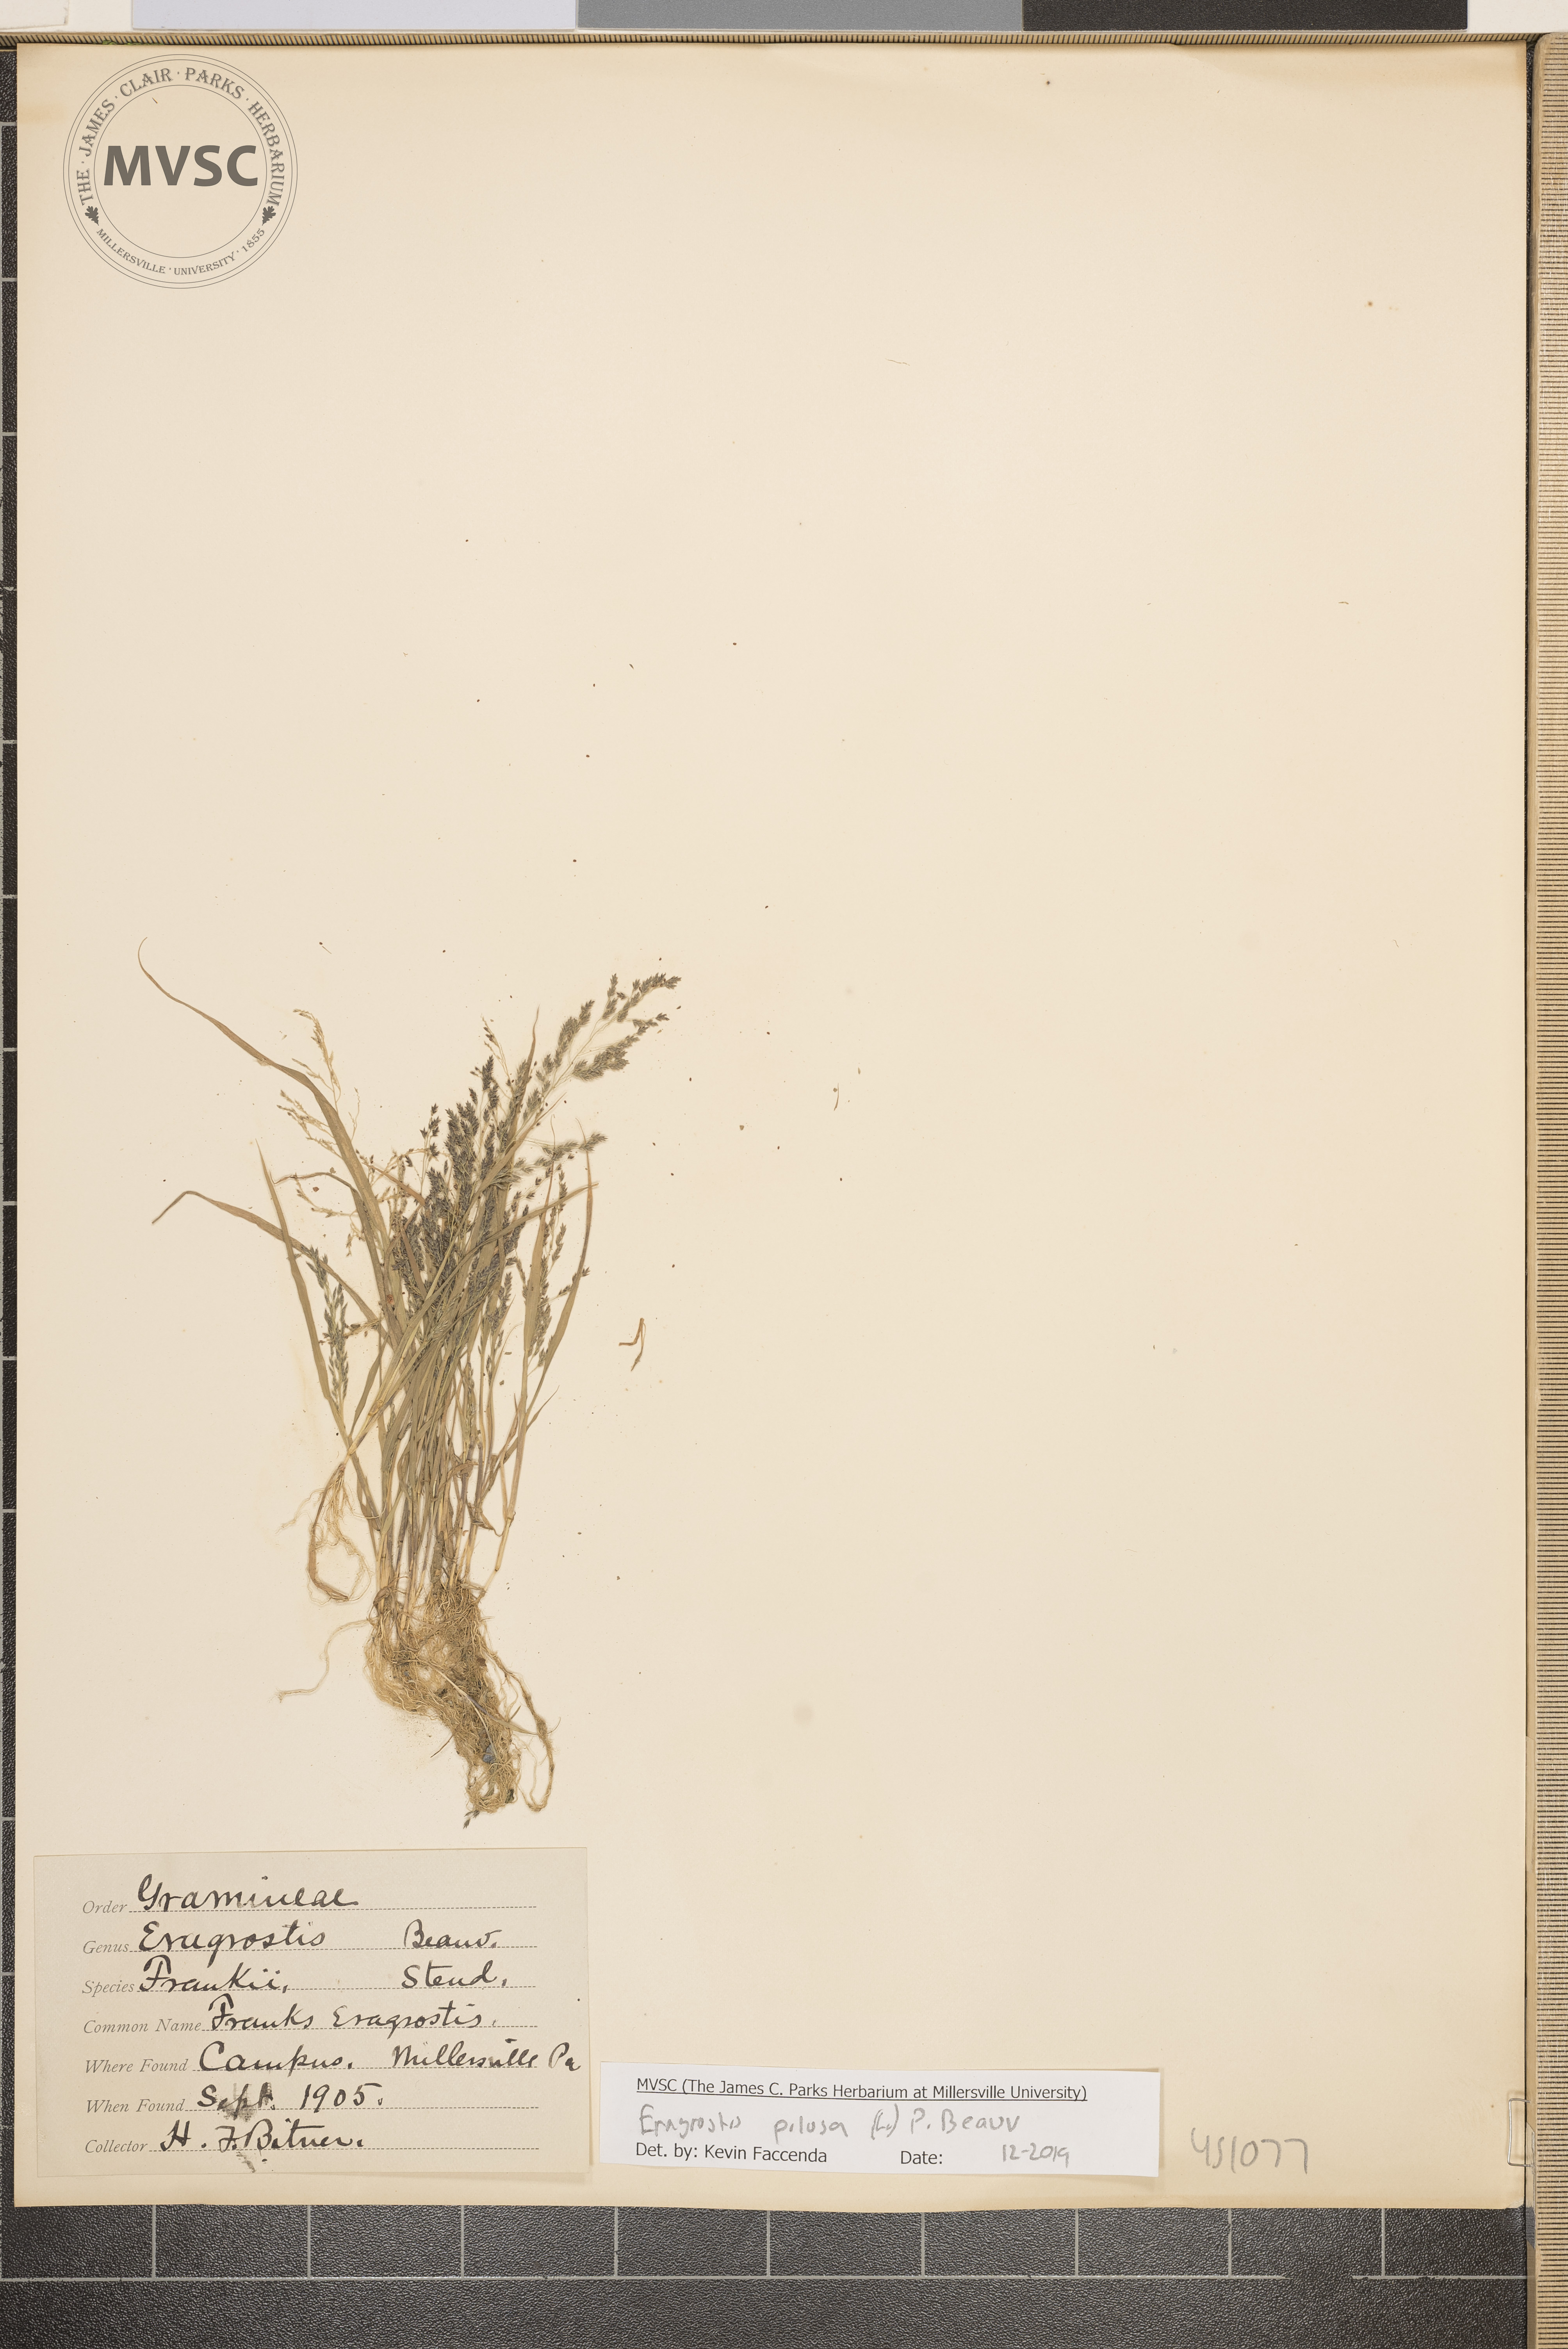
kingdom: Plantae
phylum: Tracheophyta
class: Liliopsida
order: Poales
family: Poaceae
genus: Eragrostis
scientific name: Eragrostis pilosa
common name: Indian lovegrass
